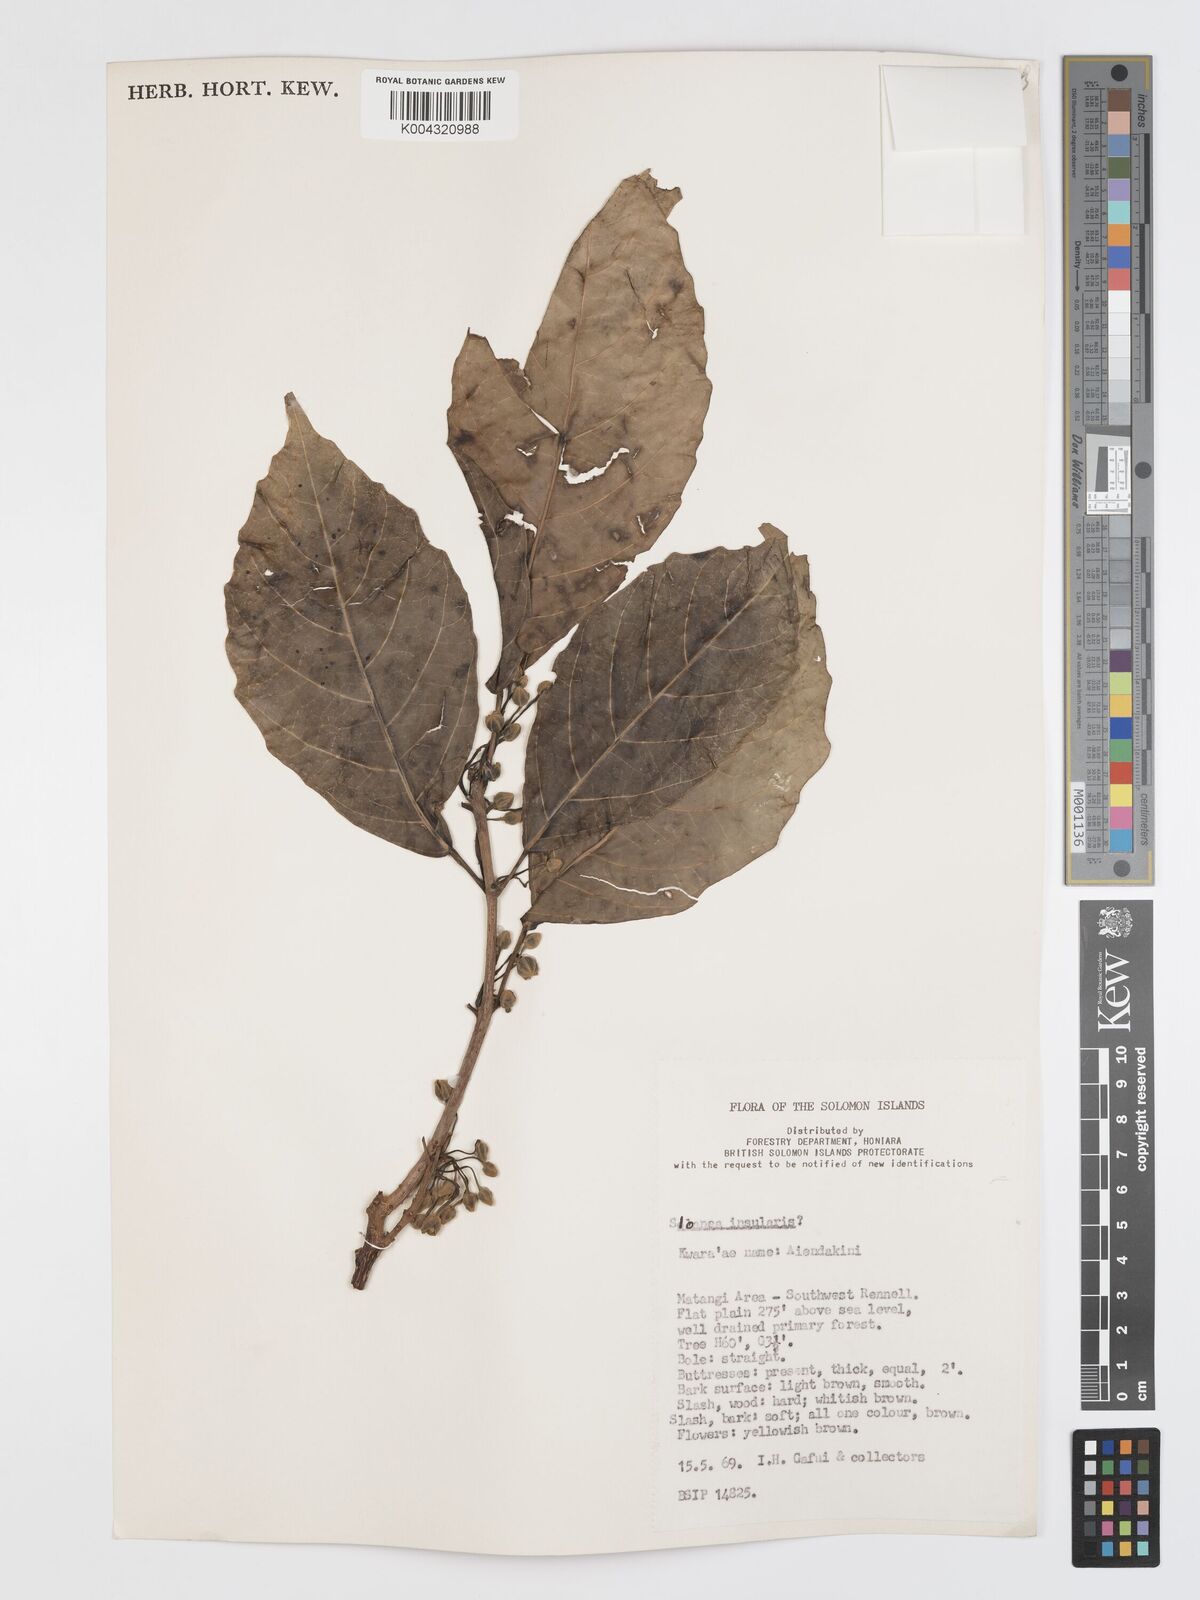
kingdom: Plantae
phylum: Tracheophyta
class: Magnoliopsida
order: Oxalidales
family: Elaeocarpaceae
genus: Sloanea
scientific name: Sloanea insularis
